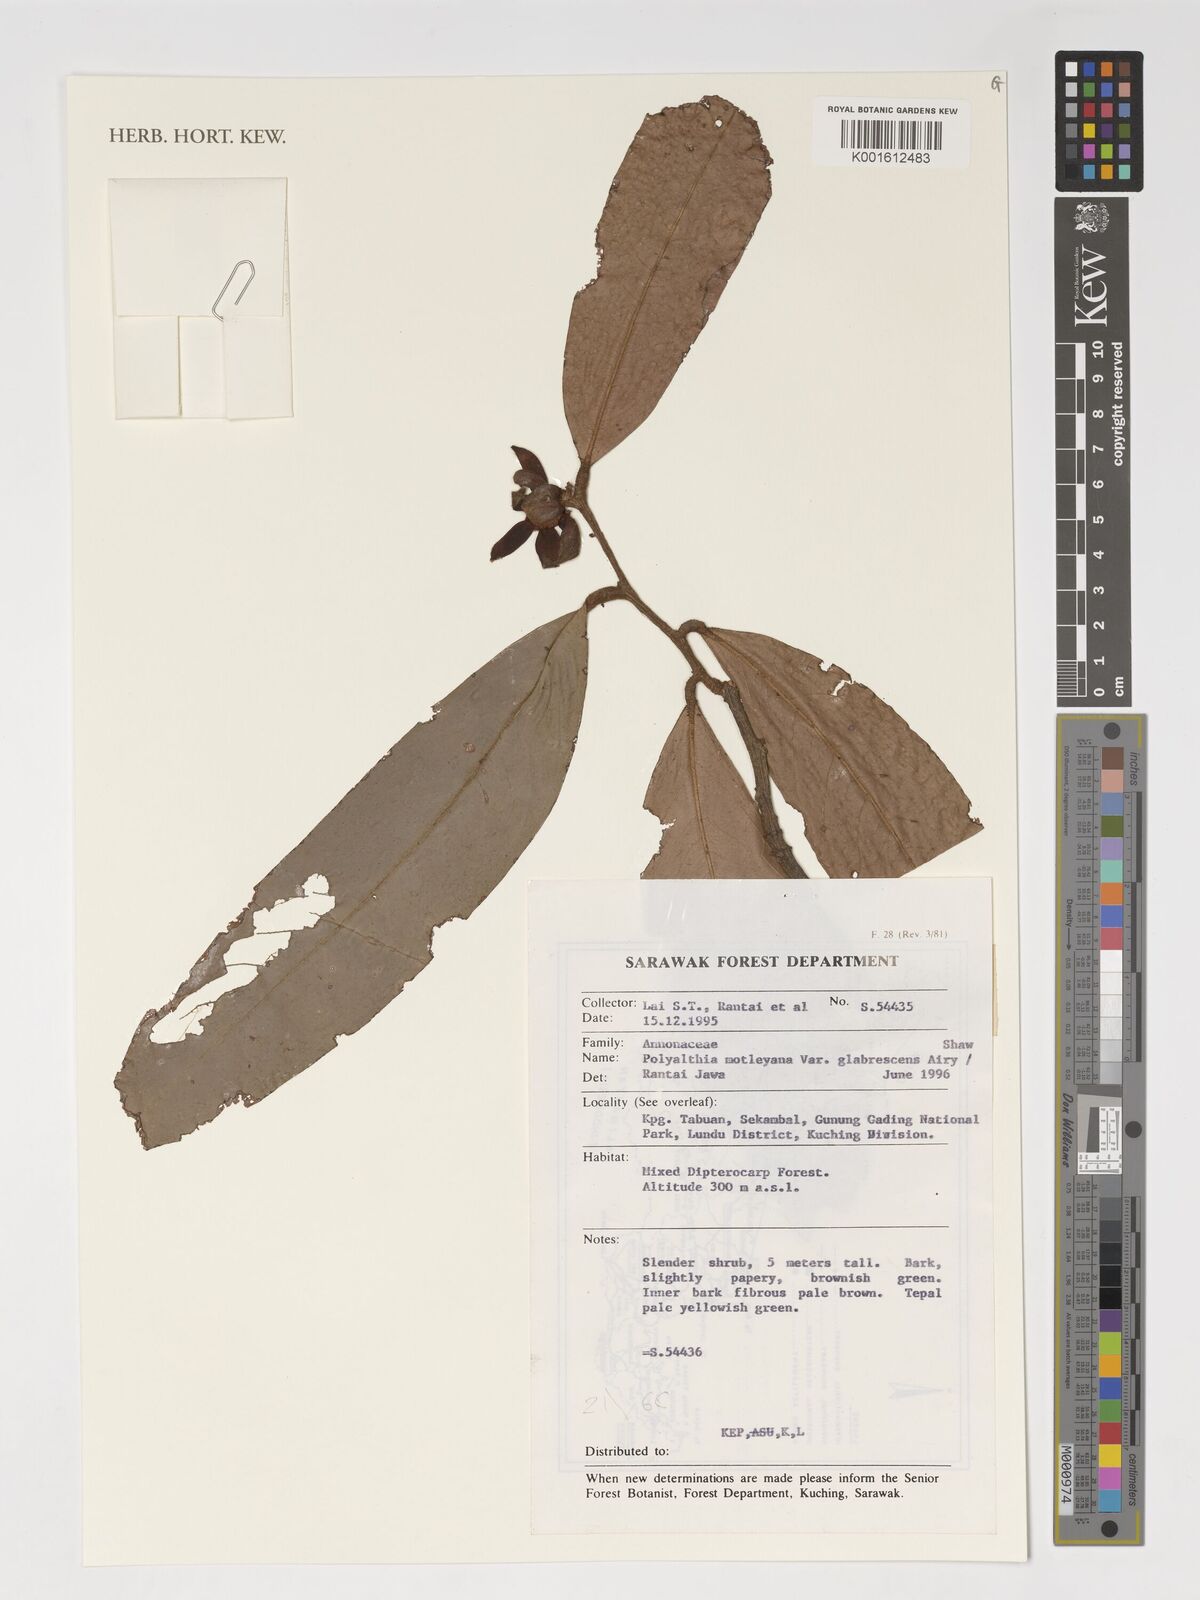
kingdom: Plantae
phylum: Tracheophyta
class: Magnoliopsida
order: Magnoliales
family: Annonaceae
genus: Polyalthia
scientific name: Polyalthia motleyana
